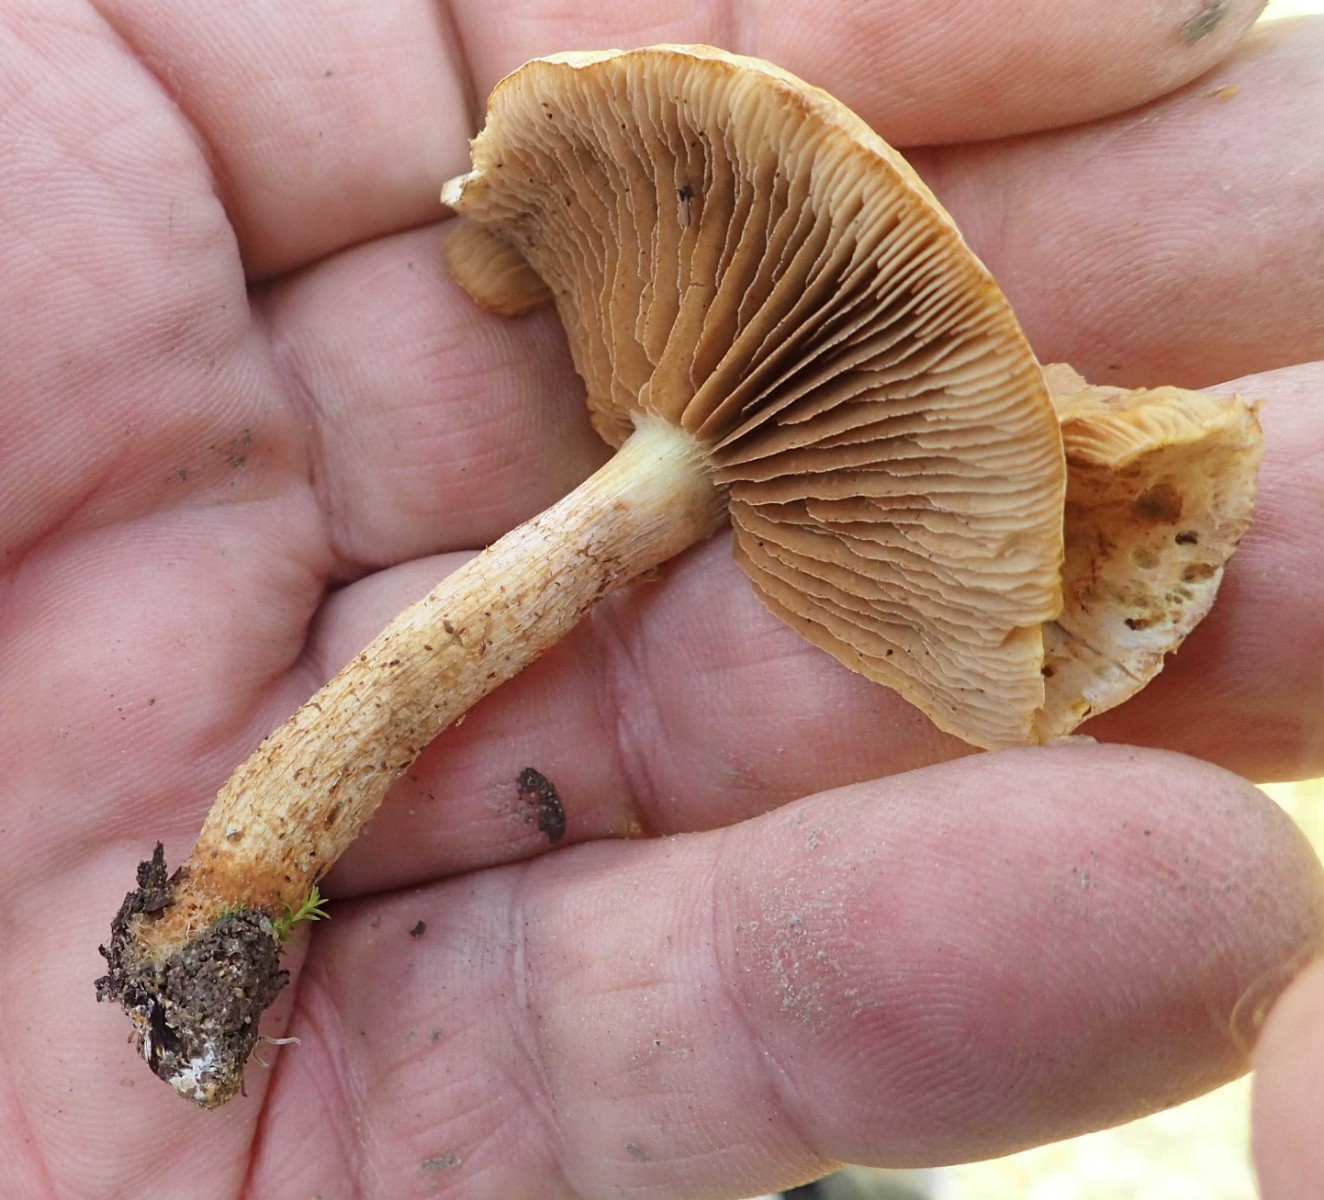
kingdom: Fungi
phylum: Basidiomycota
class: Agaricomycetes
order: Agaricales
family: Strophariaceae
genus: Pholiota
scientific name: Pholiota gummosa
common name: grøngul skælhat
